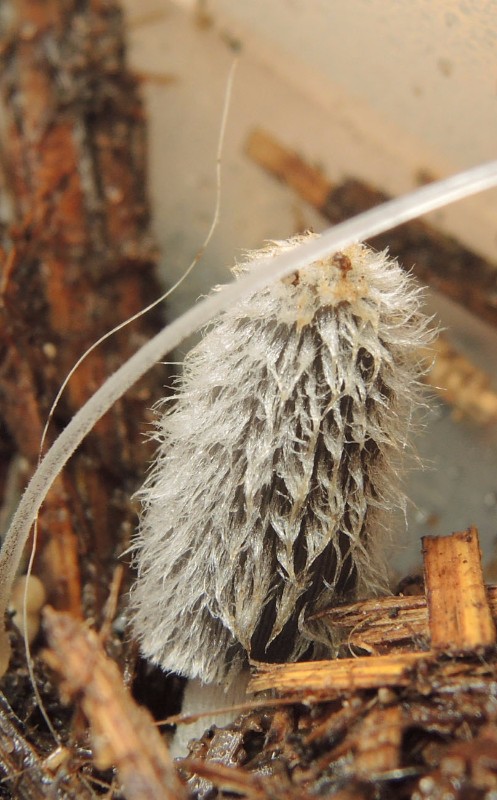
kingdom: Fungi
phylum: Basidiomycota
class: Agaricomycetes
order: Agaricales
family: Psathyrellaceae
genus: Coprinopsis
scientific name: Coprinopsis radiata
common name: lille gødnings-blækhat
